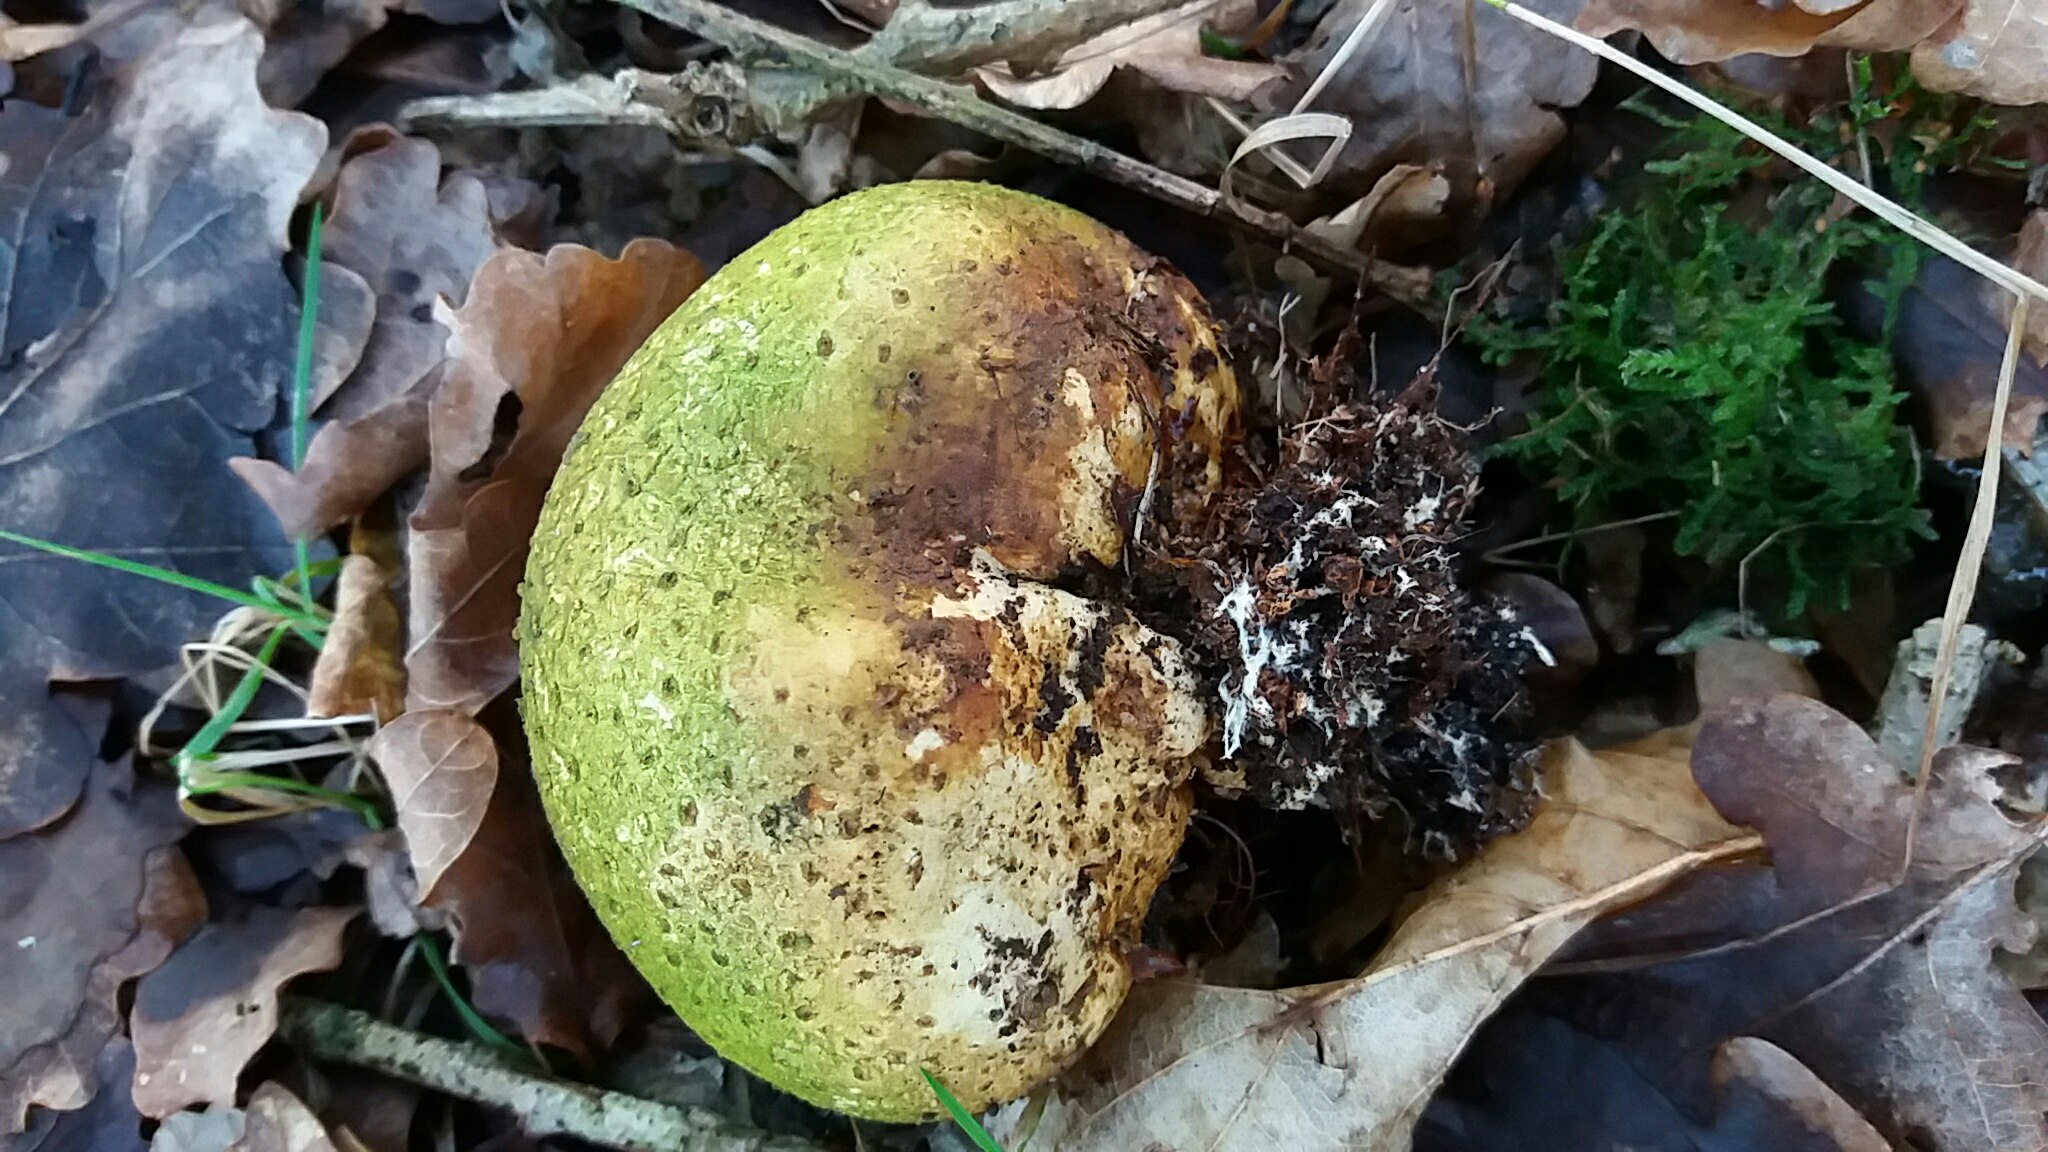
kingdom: Fungi
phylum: Basidiomycota
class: Agaricomycetes
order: Boletales
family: Sclerodermataceae
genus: Scleroderma
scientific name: Scleroderma citrinum
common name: almindelig bruskbold
